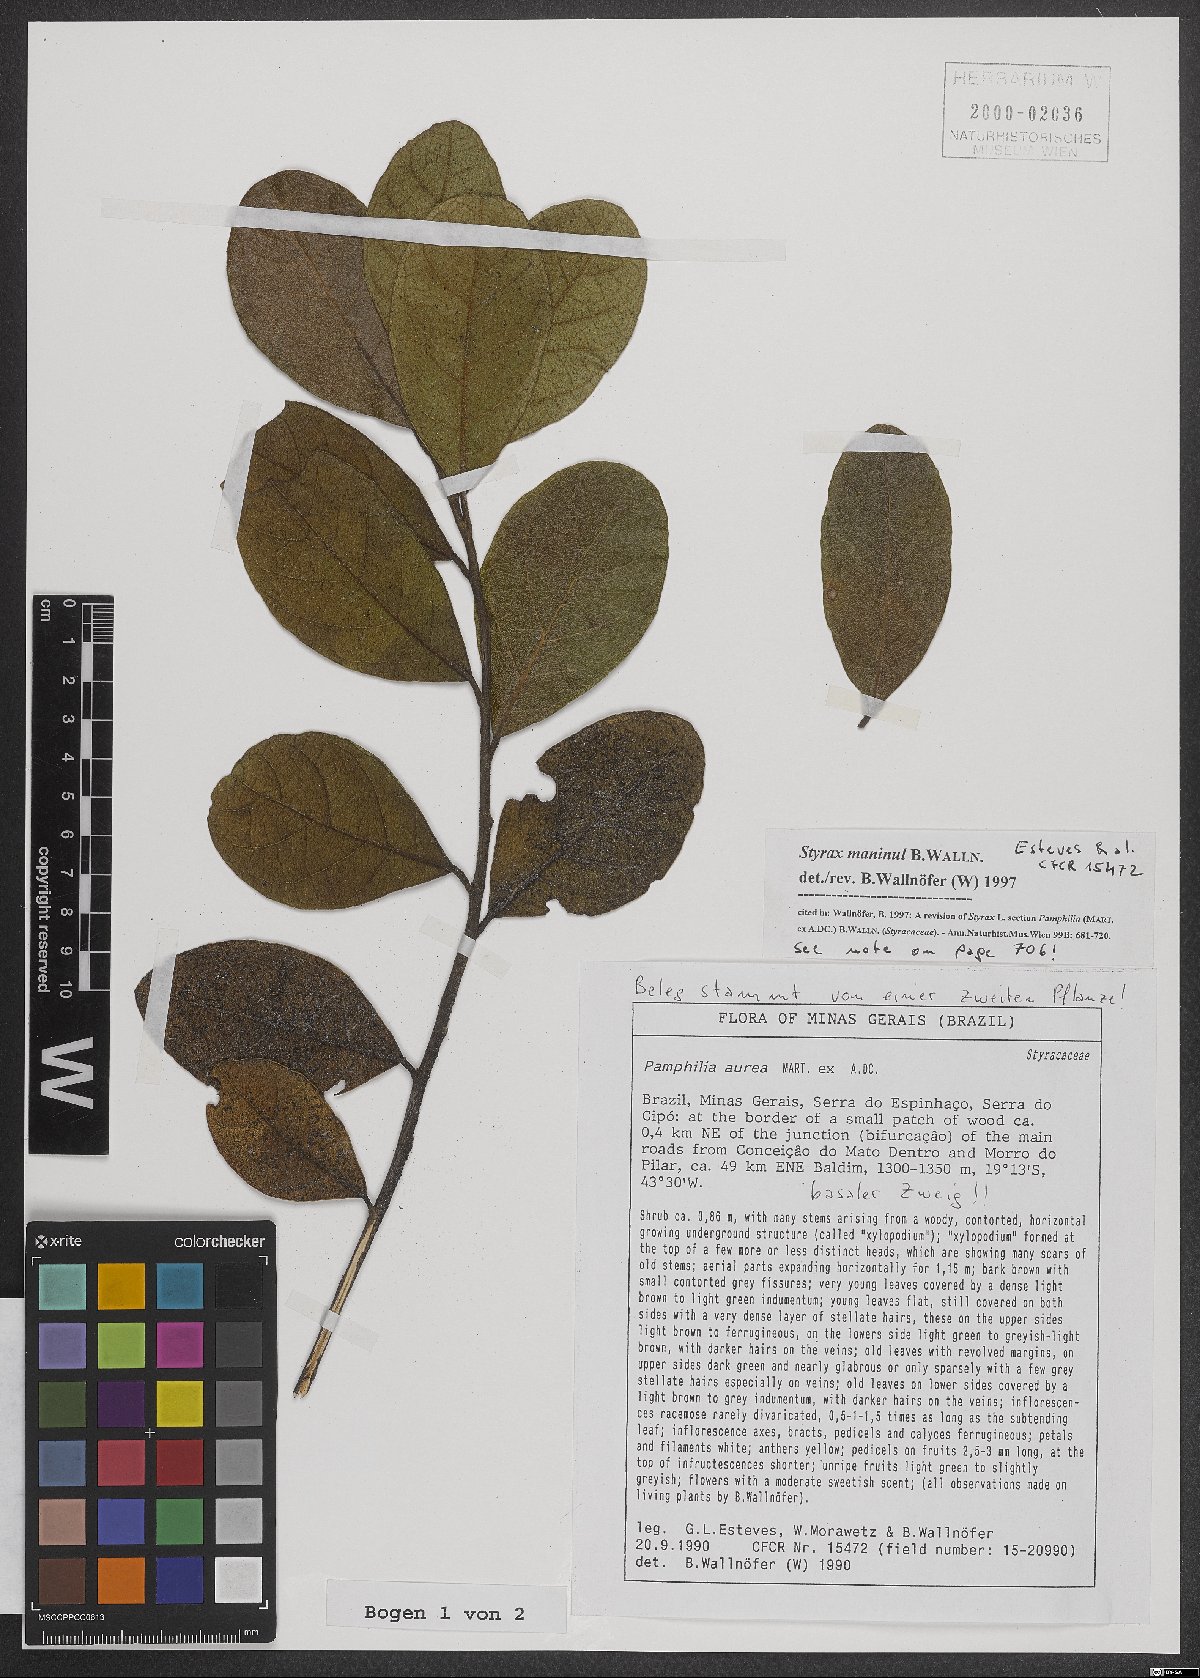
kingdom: Plantae
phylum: Tracheophyta
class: Magnoliopsida
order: Ericales
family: Styracaceae
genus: Styrax
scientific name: Styrax maninul
